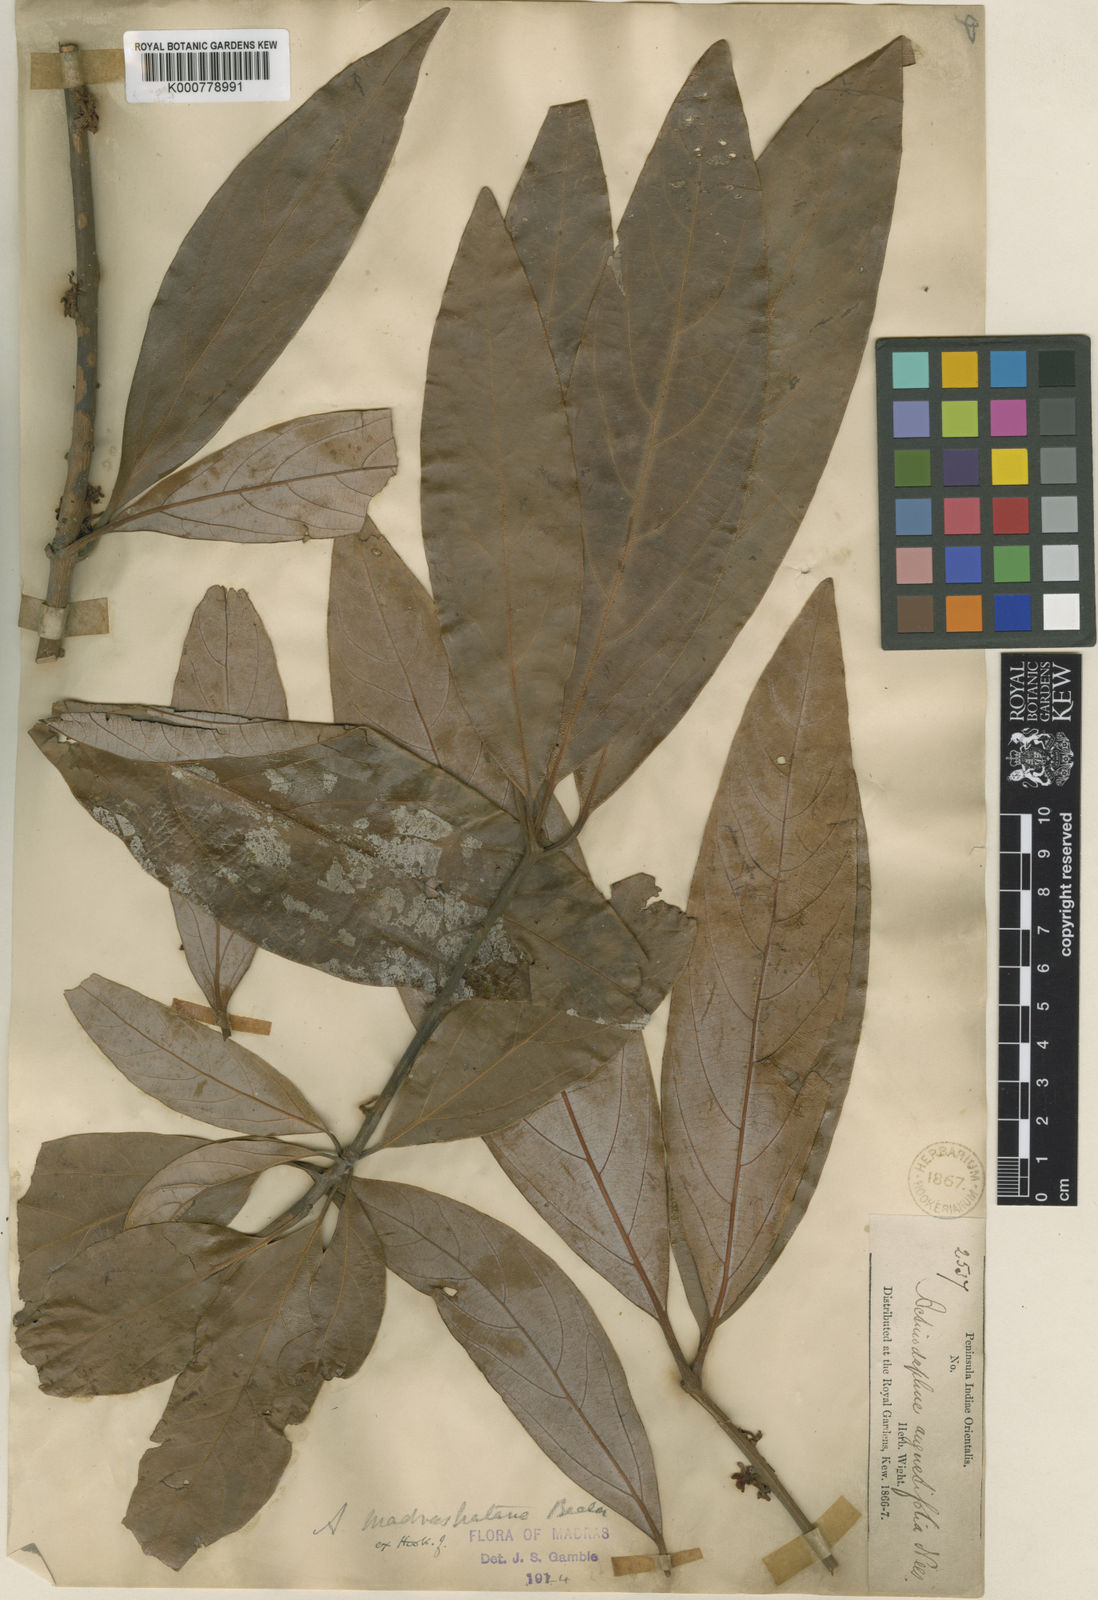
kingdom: Plantae
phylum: Tracheophyta
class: Magnoliopsida
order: Laurales
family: Lauraceae
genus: Actinodaphne
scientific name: Actinodaphne madraspatana
